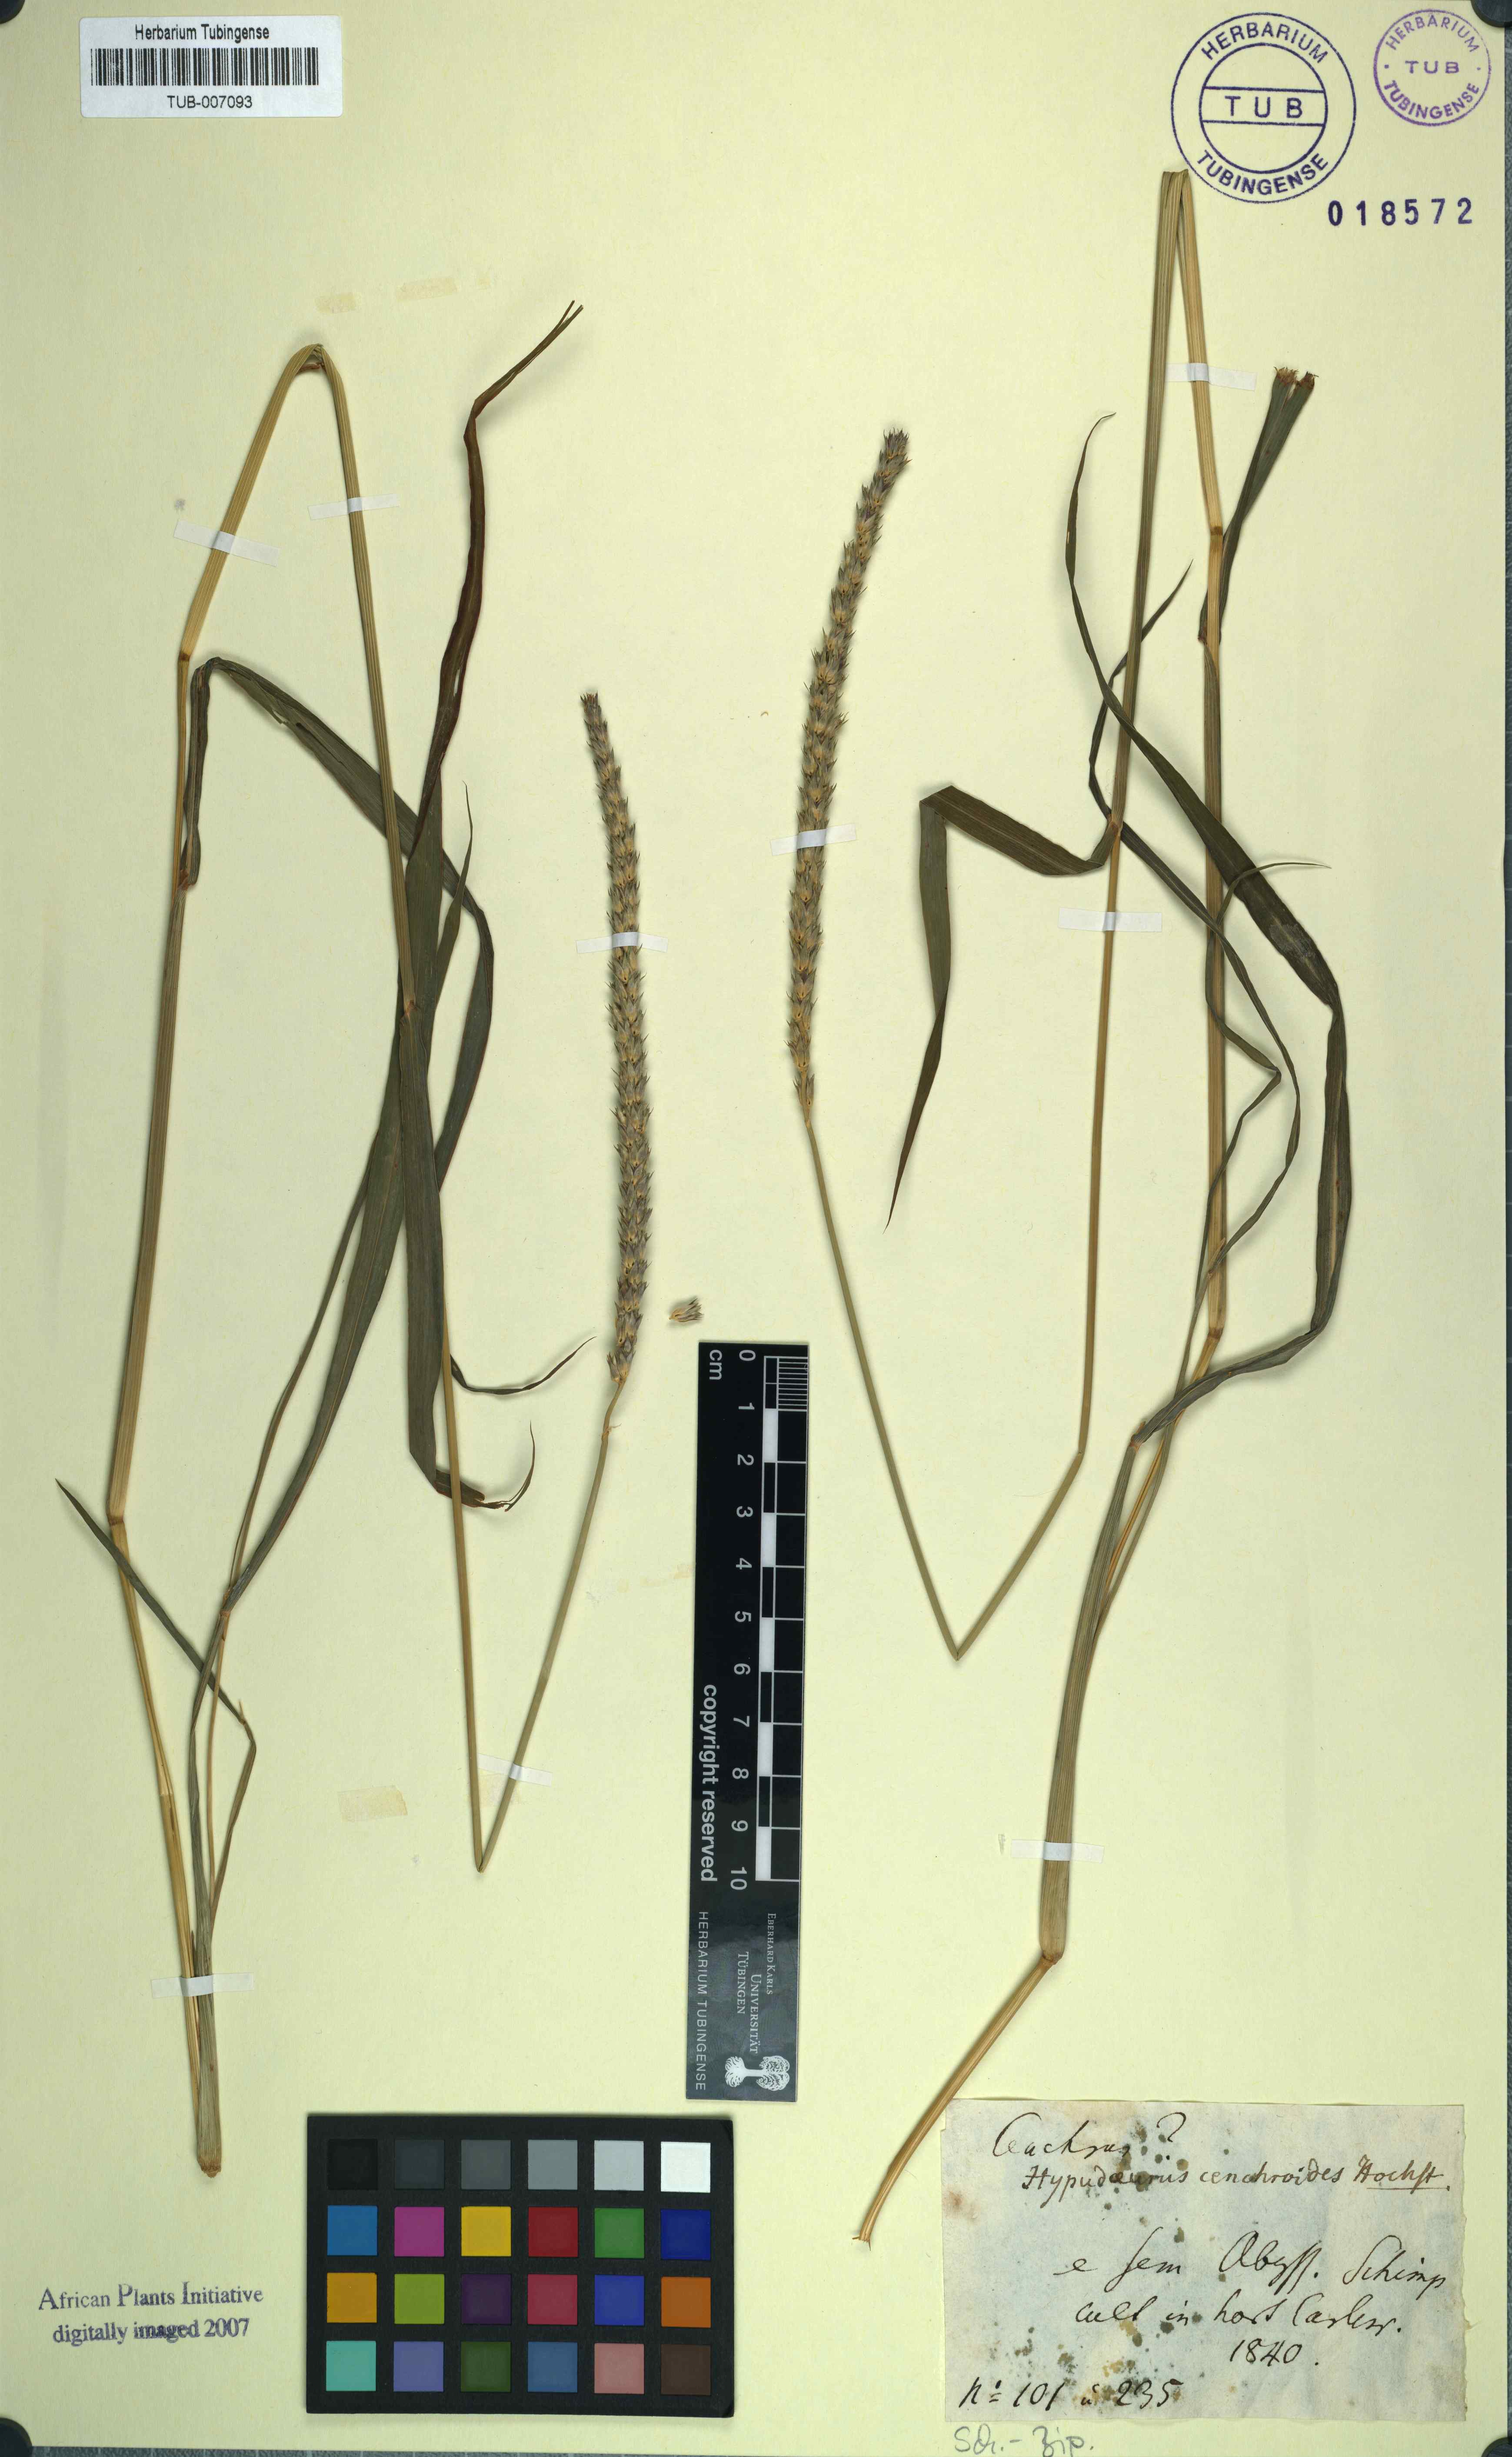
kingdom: Plantae
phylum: Tracheophyta
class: Liliopsida
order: Poales
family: Poaceae
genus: Anthephora
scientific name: Anthephora pubescens
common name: Wool grass
